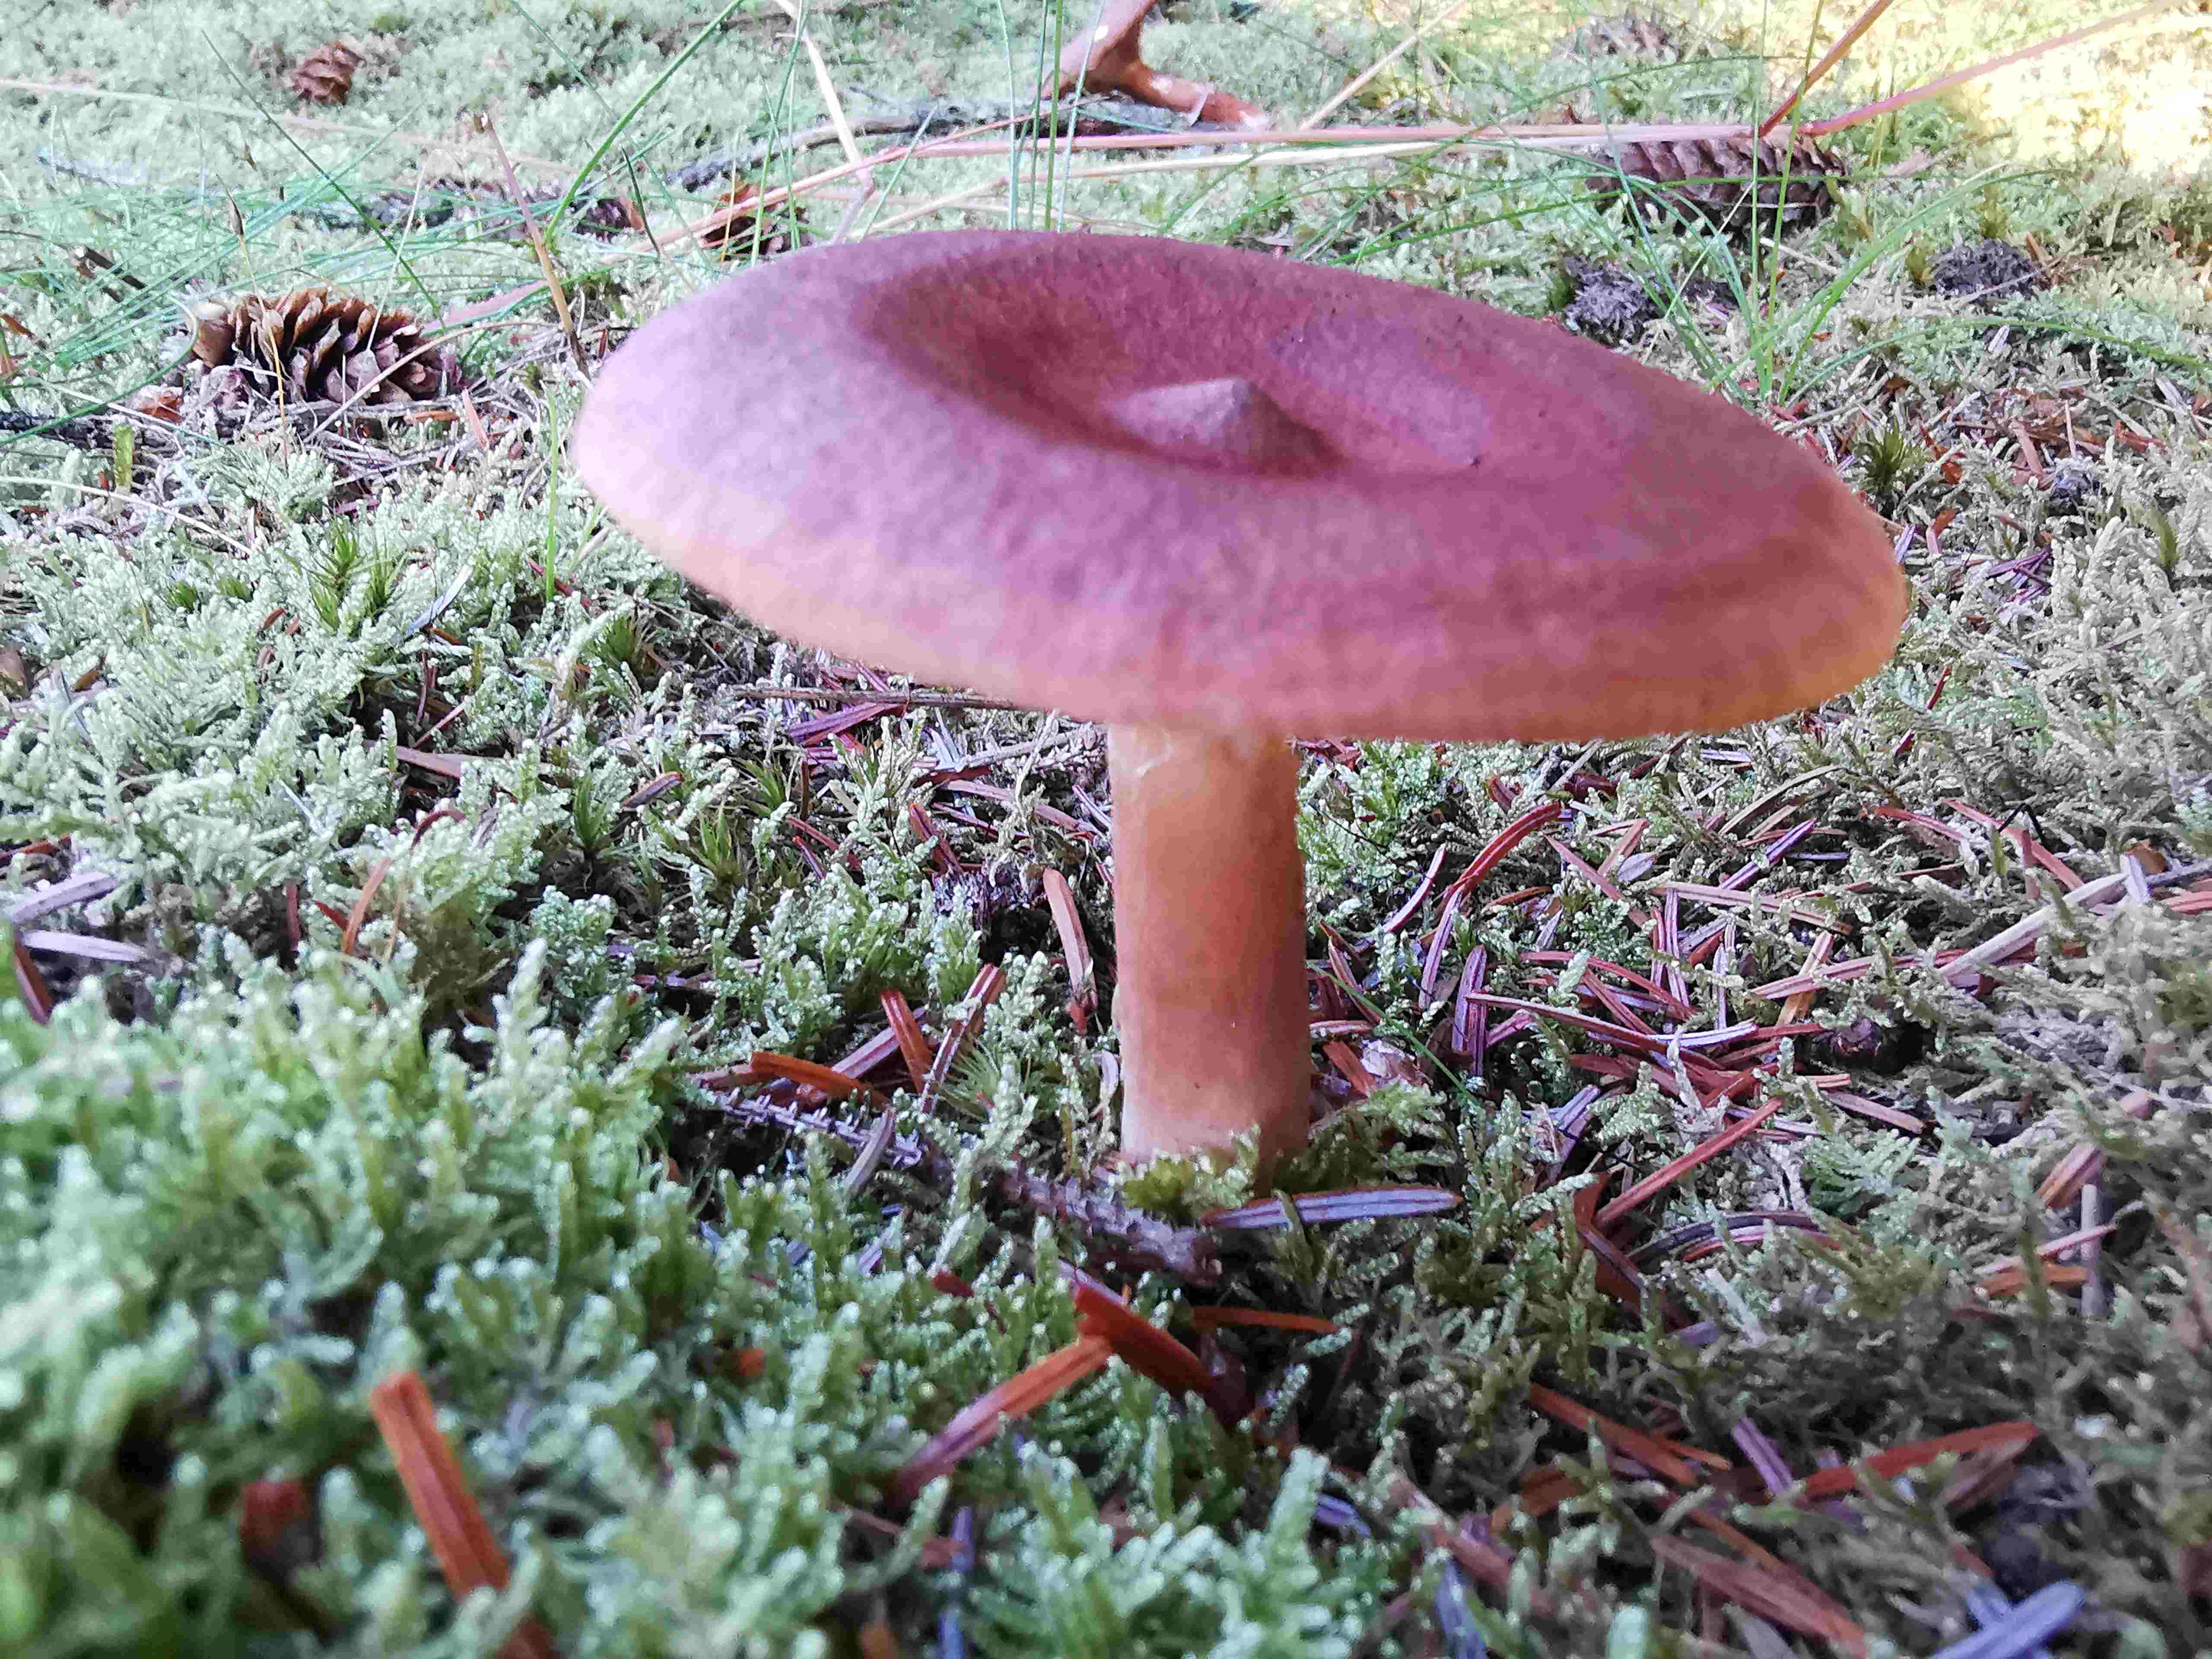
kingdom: Fungi
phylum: Basidiomycota
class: Agaricomycetes
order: Russulales
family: Russulaceae
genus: Lactarius
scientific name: Lactarius rufus
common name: rødbrun mælkehat
